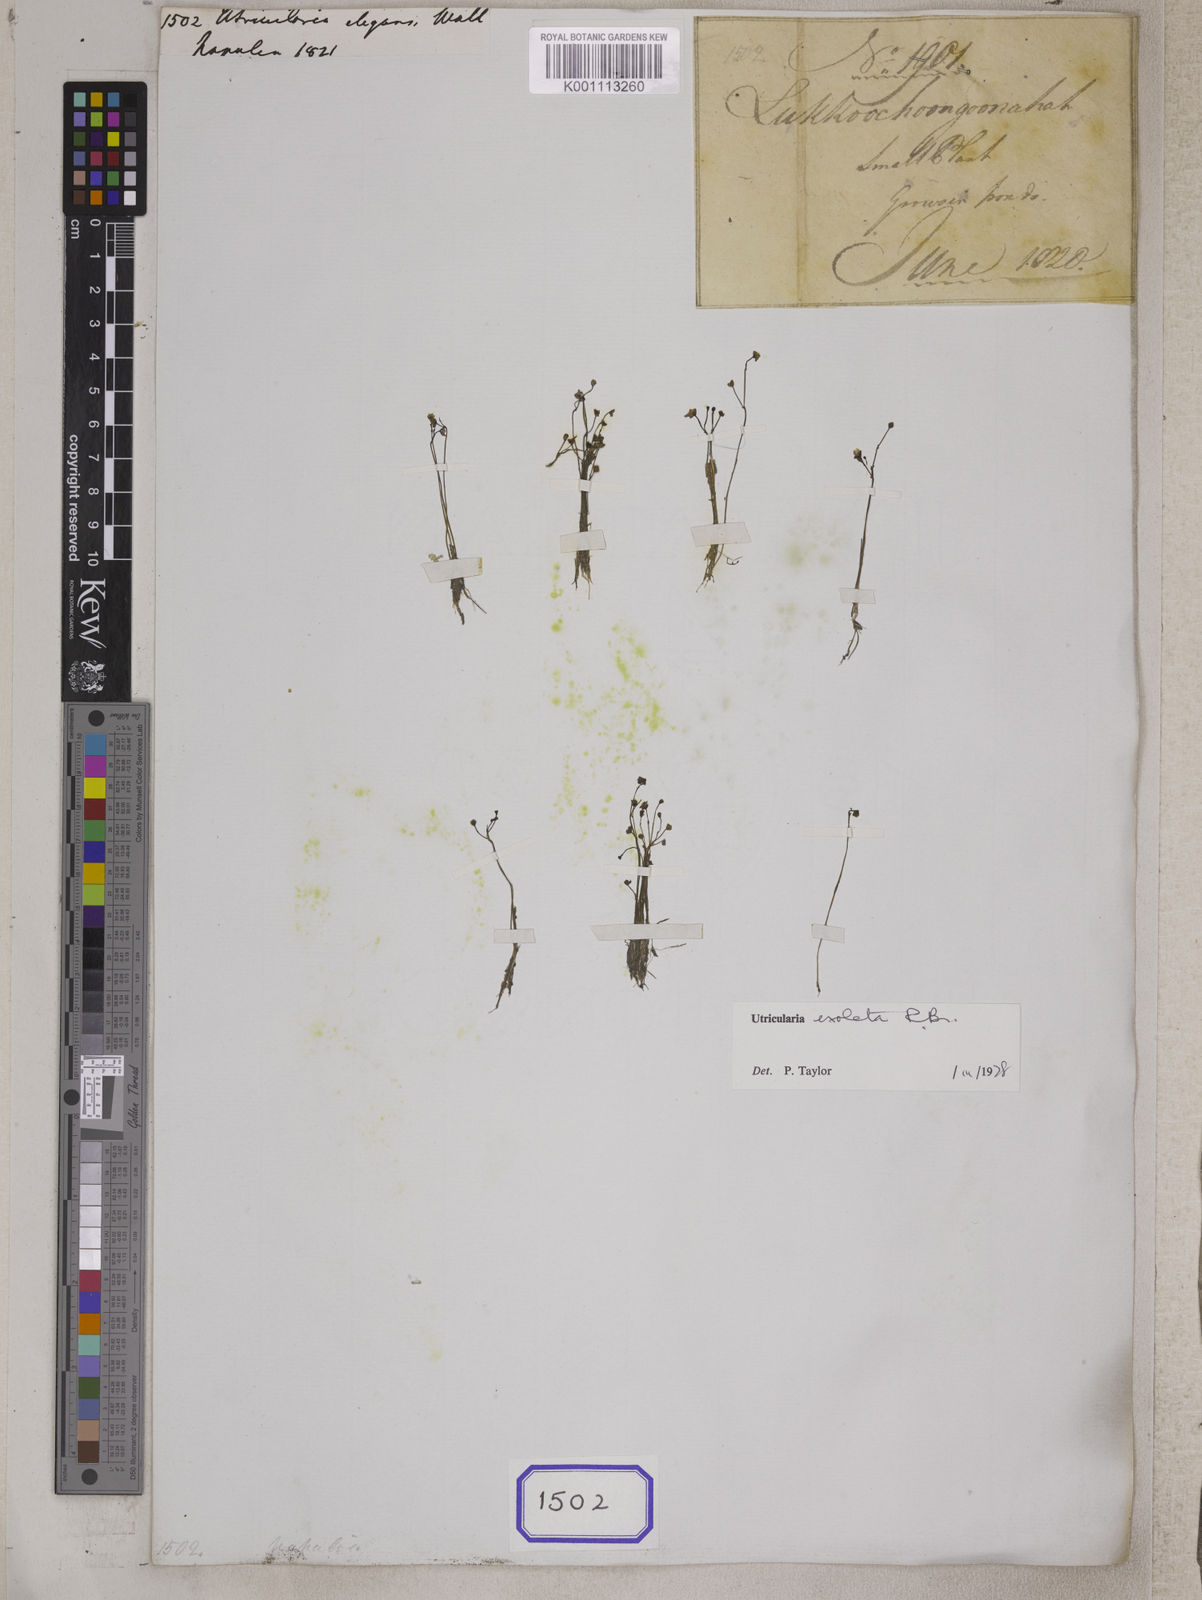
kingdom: Plantae
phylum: Tracheophyta
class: Magnoliopsida
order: Lamiales
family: Lentibulariaceae
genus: Utricularia
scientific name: Utricularia gibba
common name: Humped bladderwort
